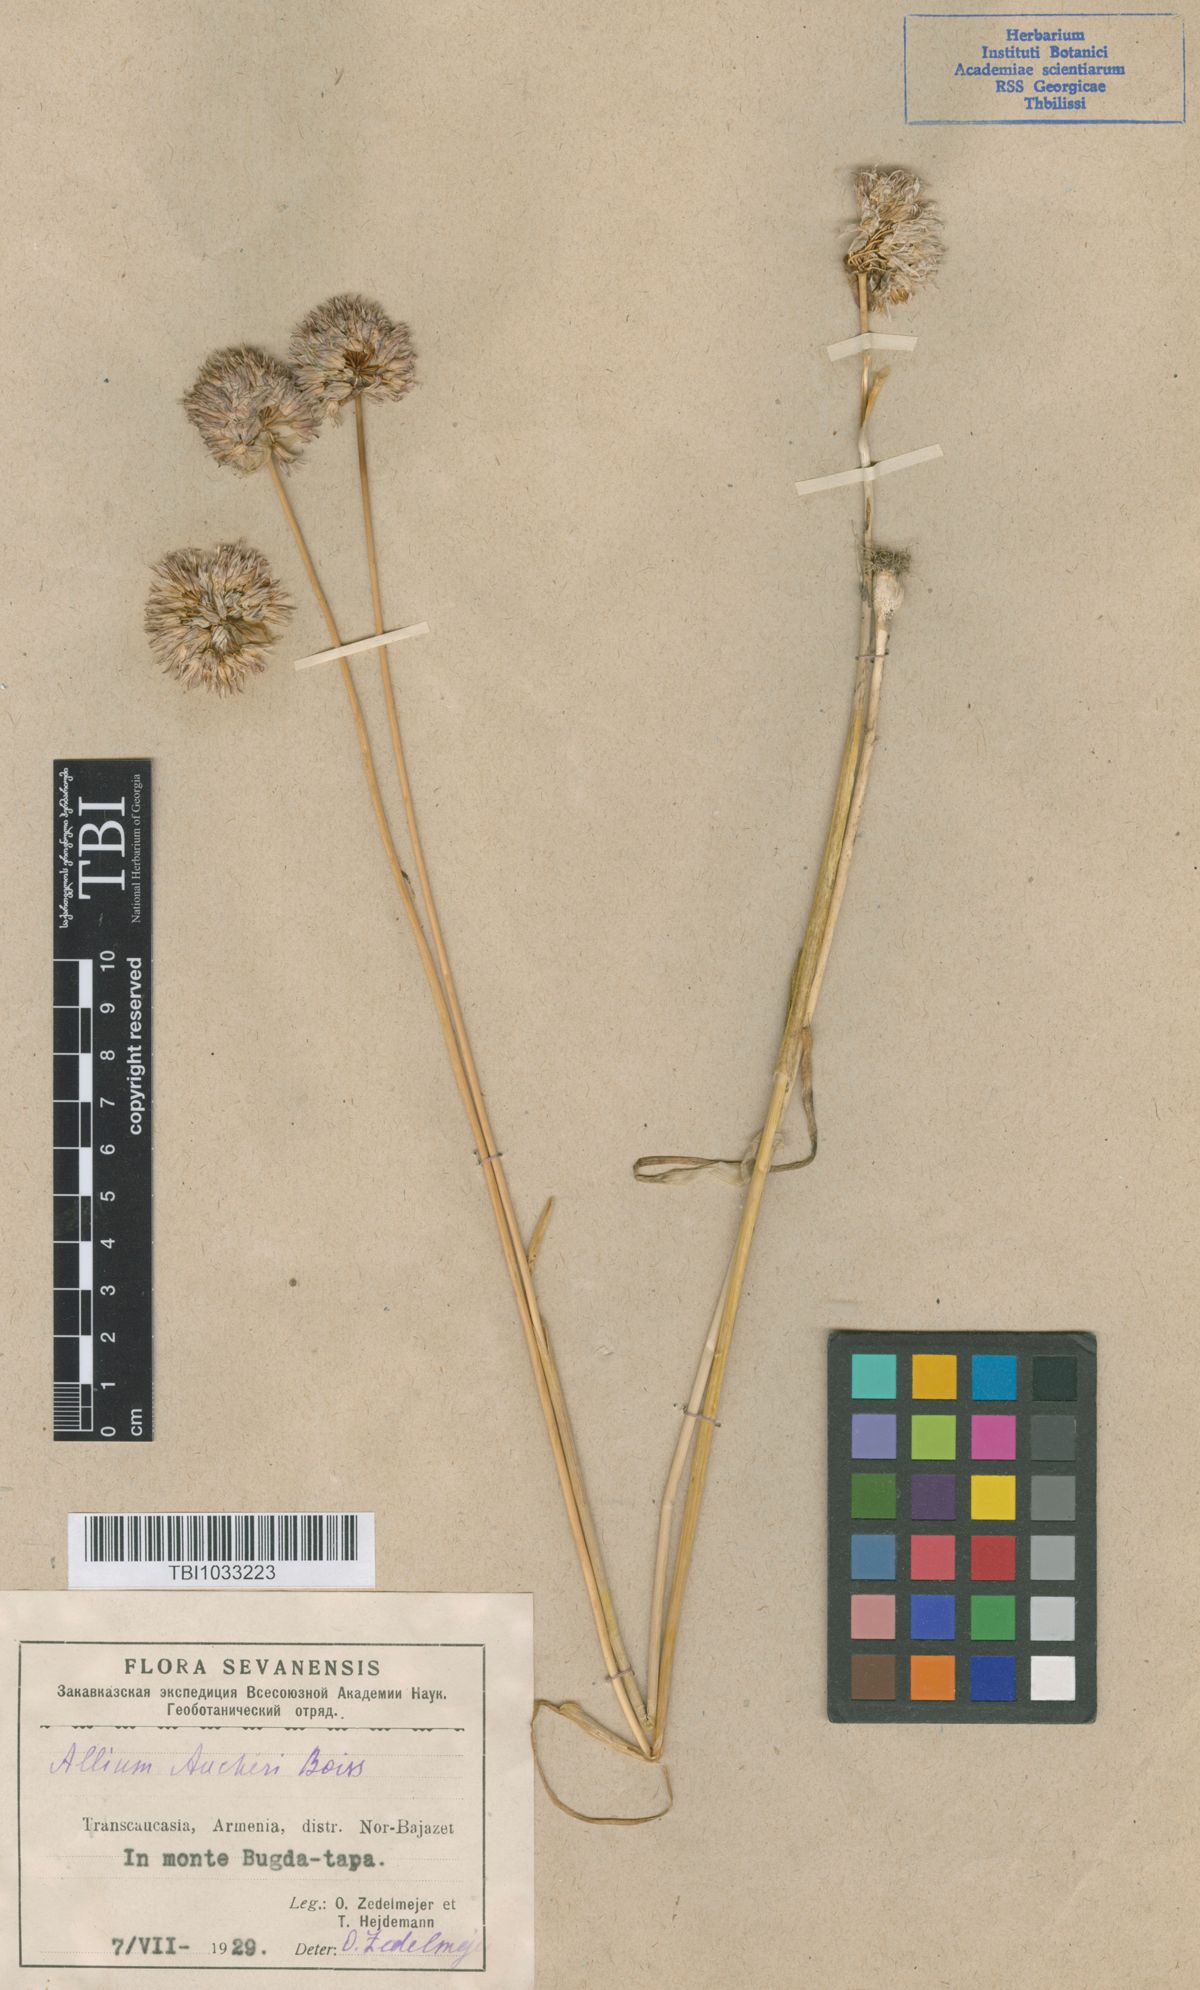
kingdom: Plantae
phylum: Tracheophyta
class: Liliopsida
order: Asparagales
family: Amaryllidaceae
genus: Allium
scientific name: Allium aucheri
